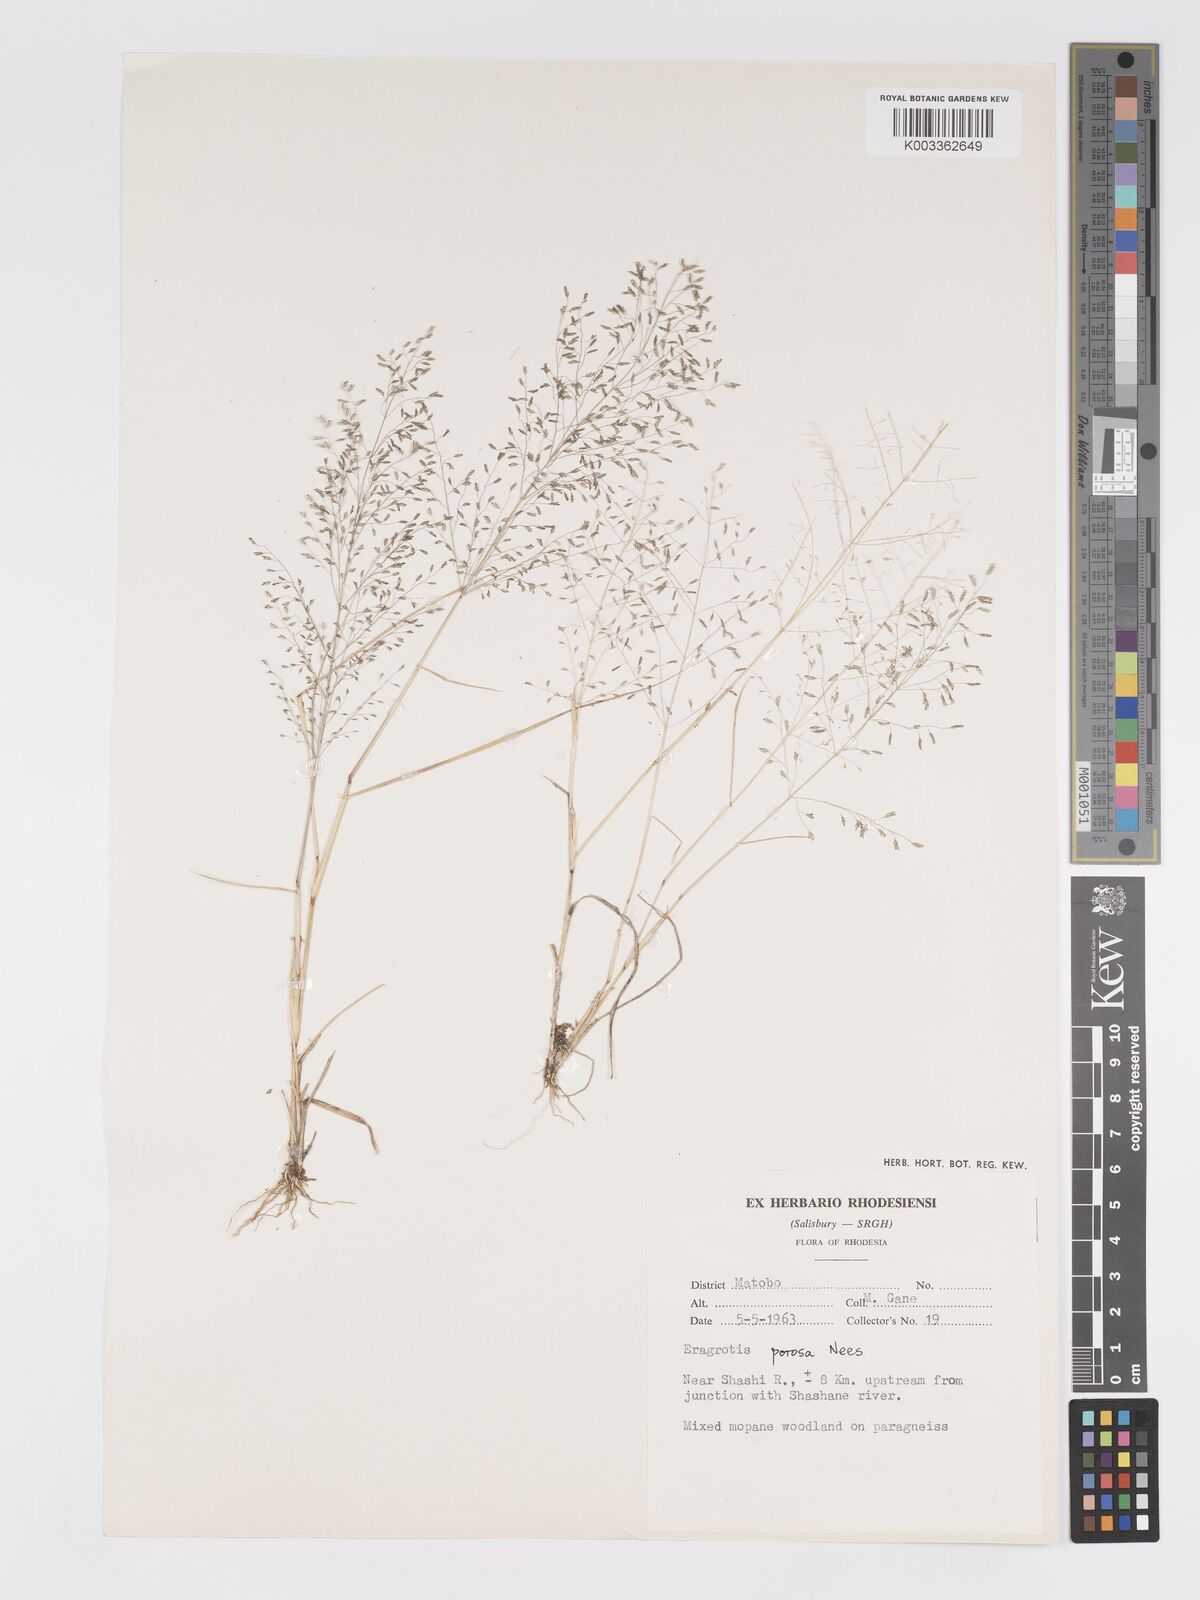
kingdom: Plantae
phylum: Tracheophyta
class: Liliopsida
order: Poales
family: Poaceae
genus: Eragrostis
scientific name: Eragrostis porosa
